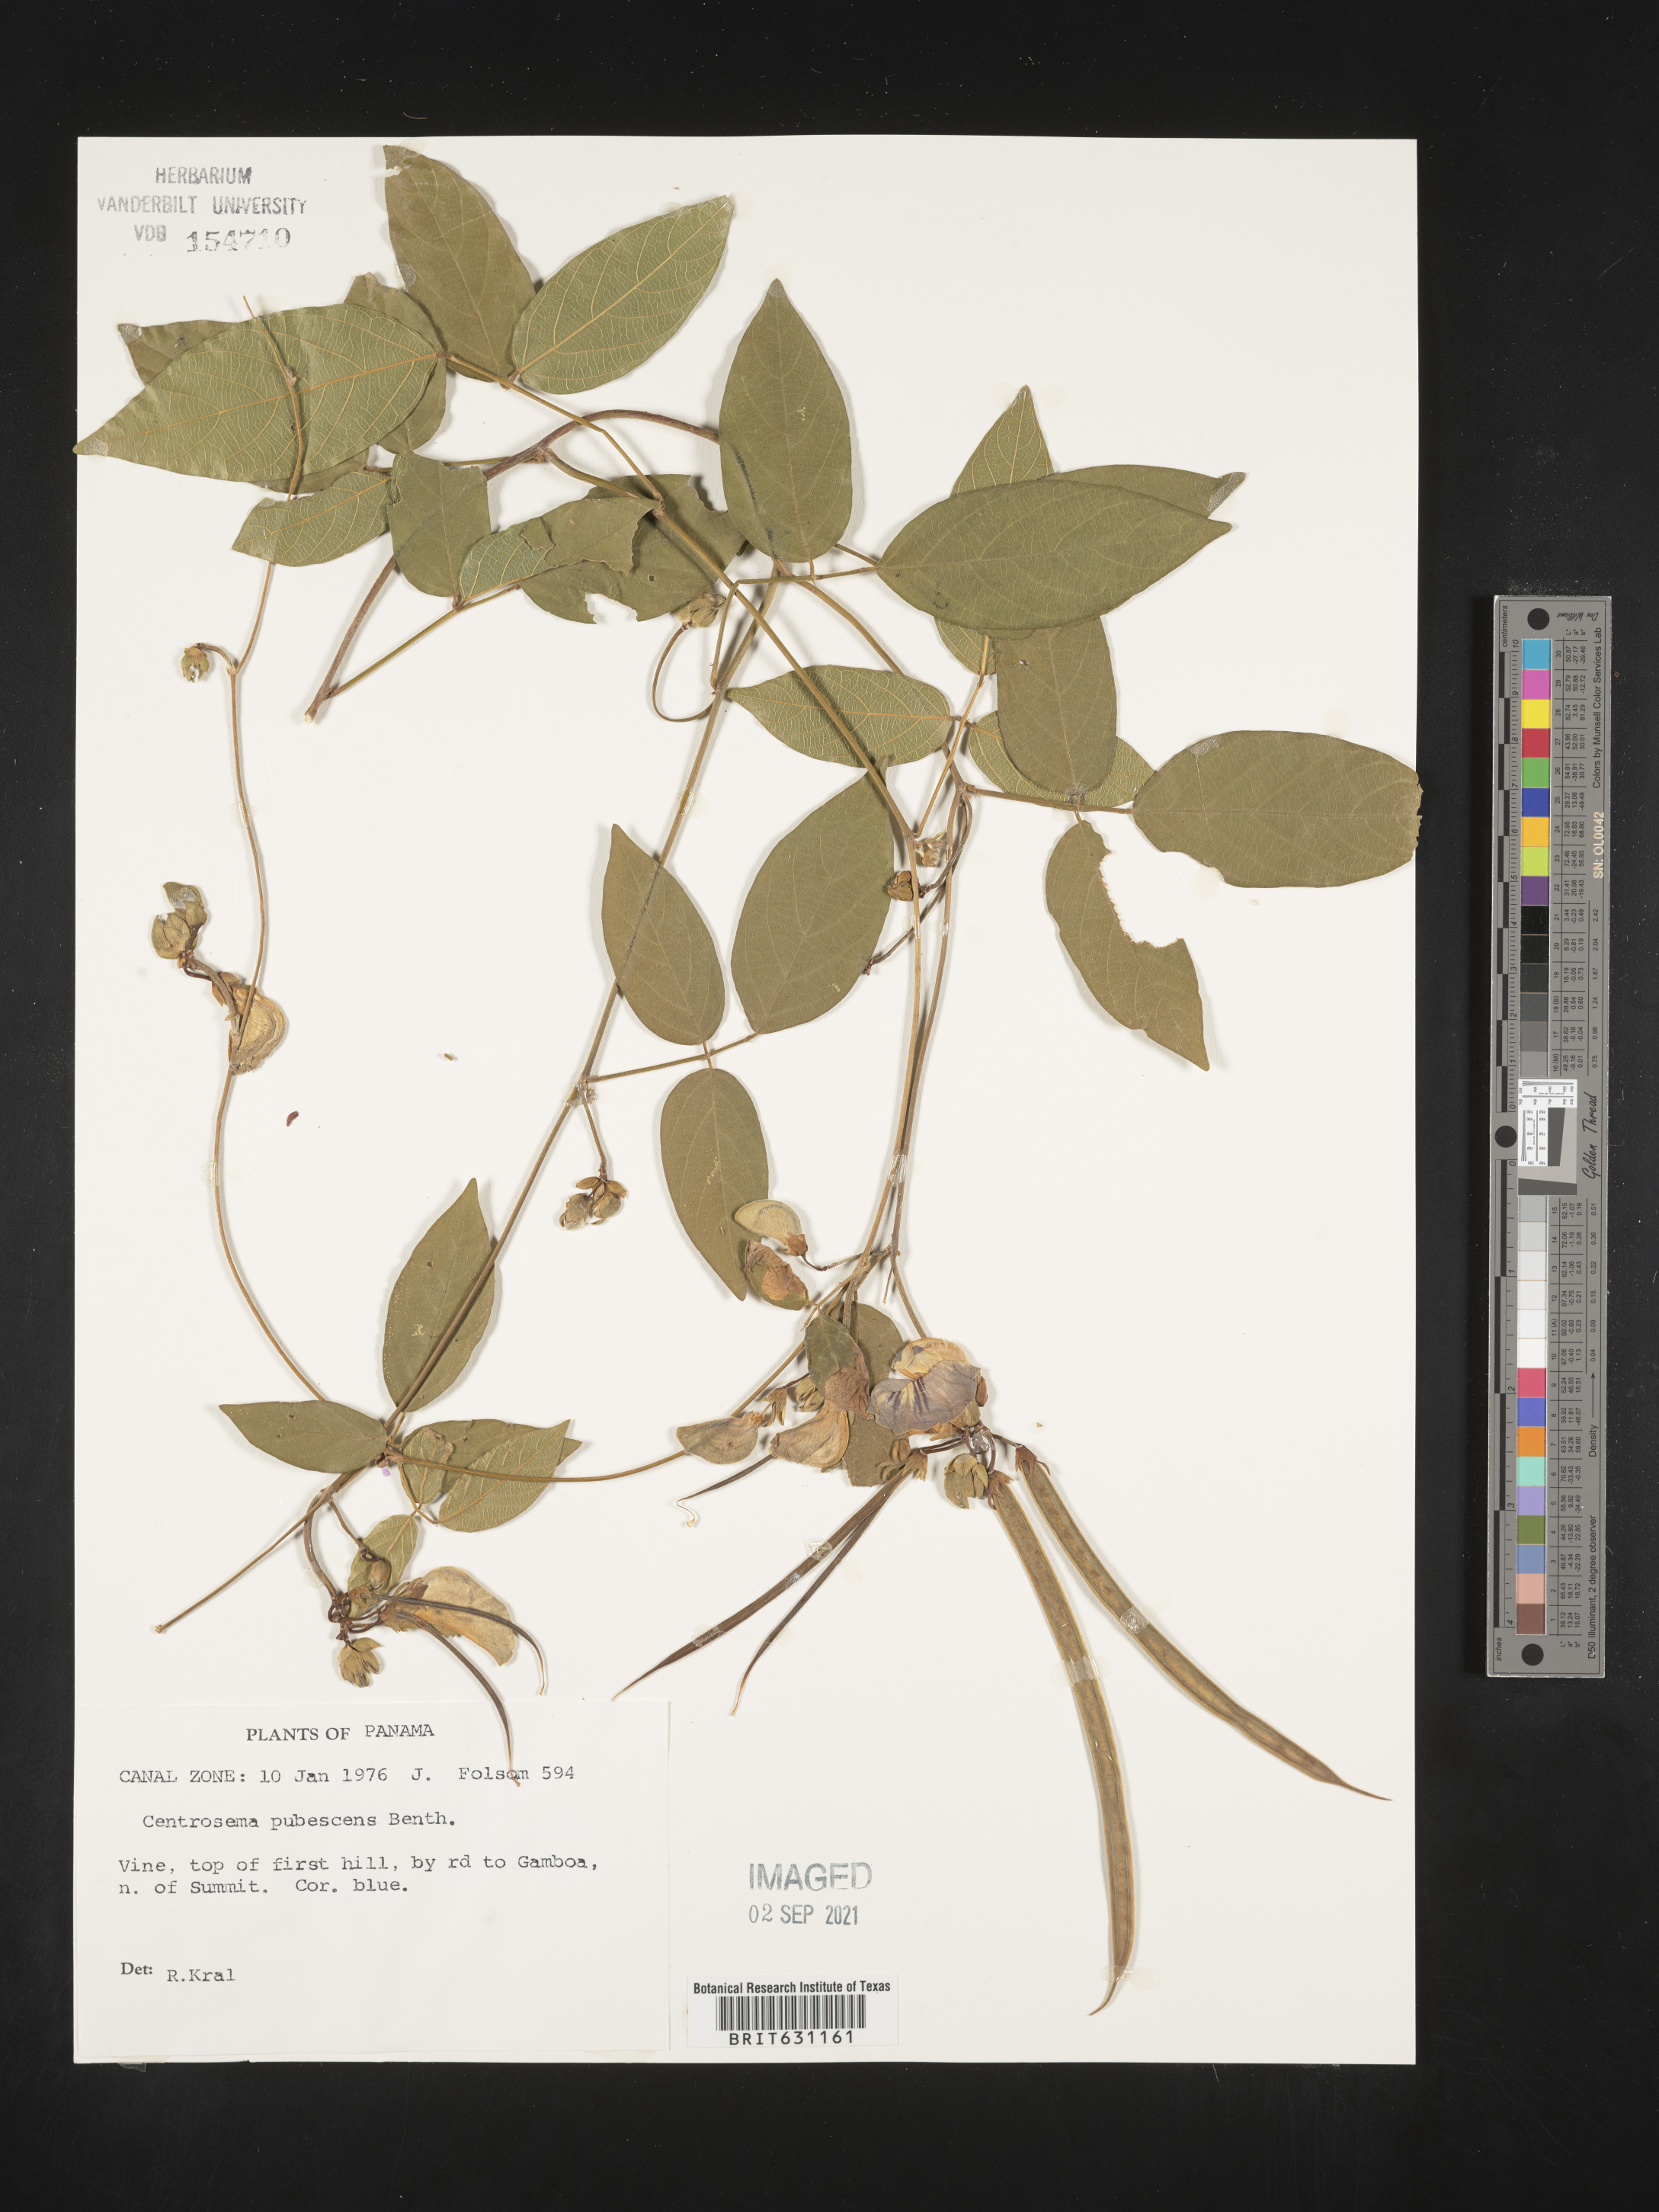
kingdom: Plantae
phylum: Tracheophyta
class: Magnoliopsida
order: Fabales
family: Fabaceae
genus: Centrosema
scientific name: Centrosema pubescens
